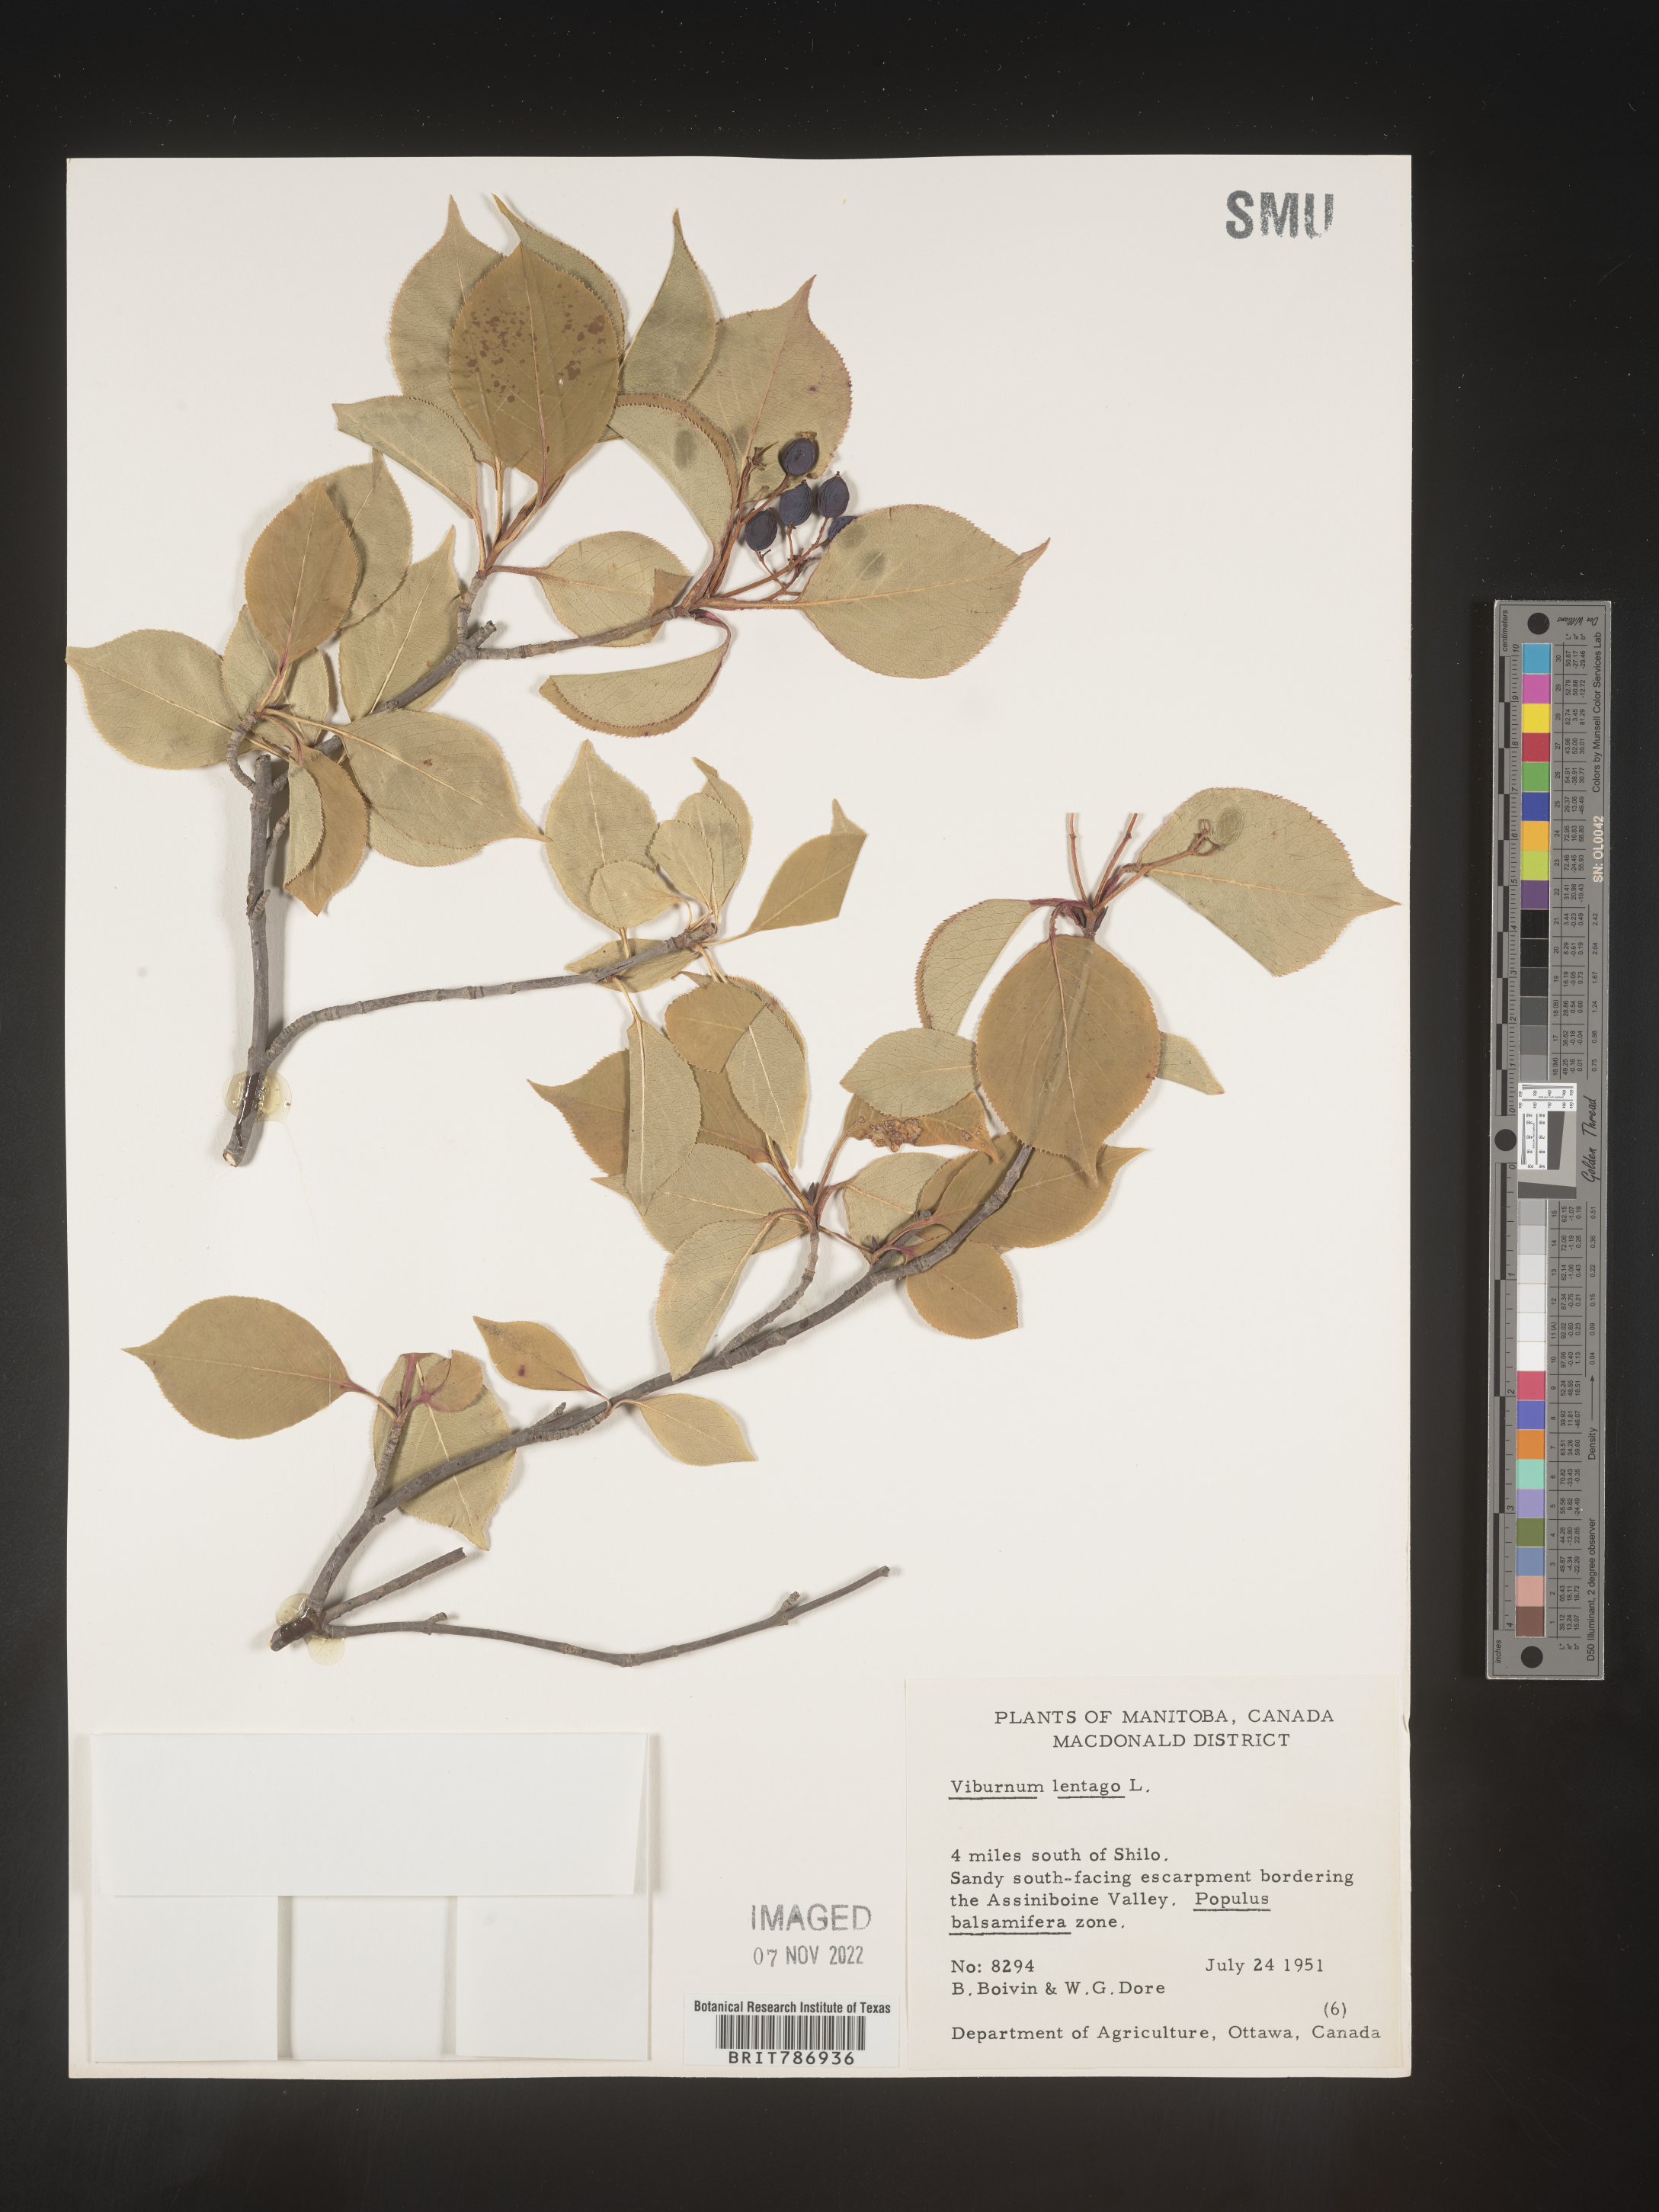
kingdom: Plantae
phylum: Tracheophyta
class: Magnoliopsida
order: Dipsacales
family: Viburnaceae
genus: Viburnum
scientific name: Viburnum lentago
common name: Black haw
